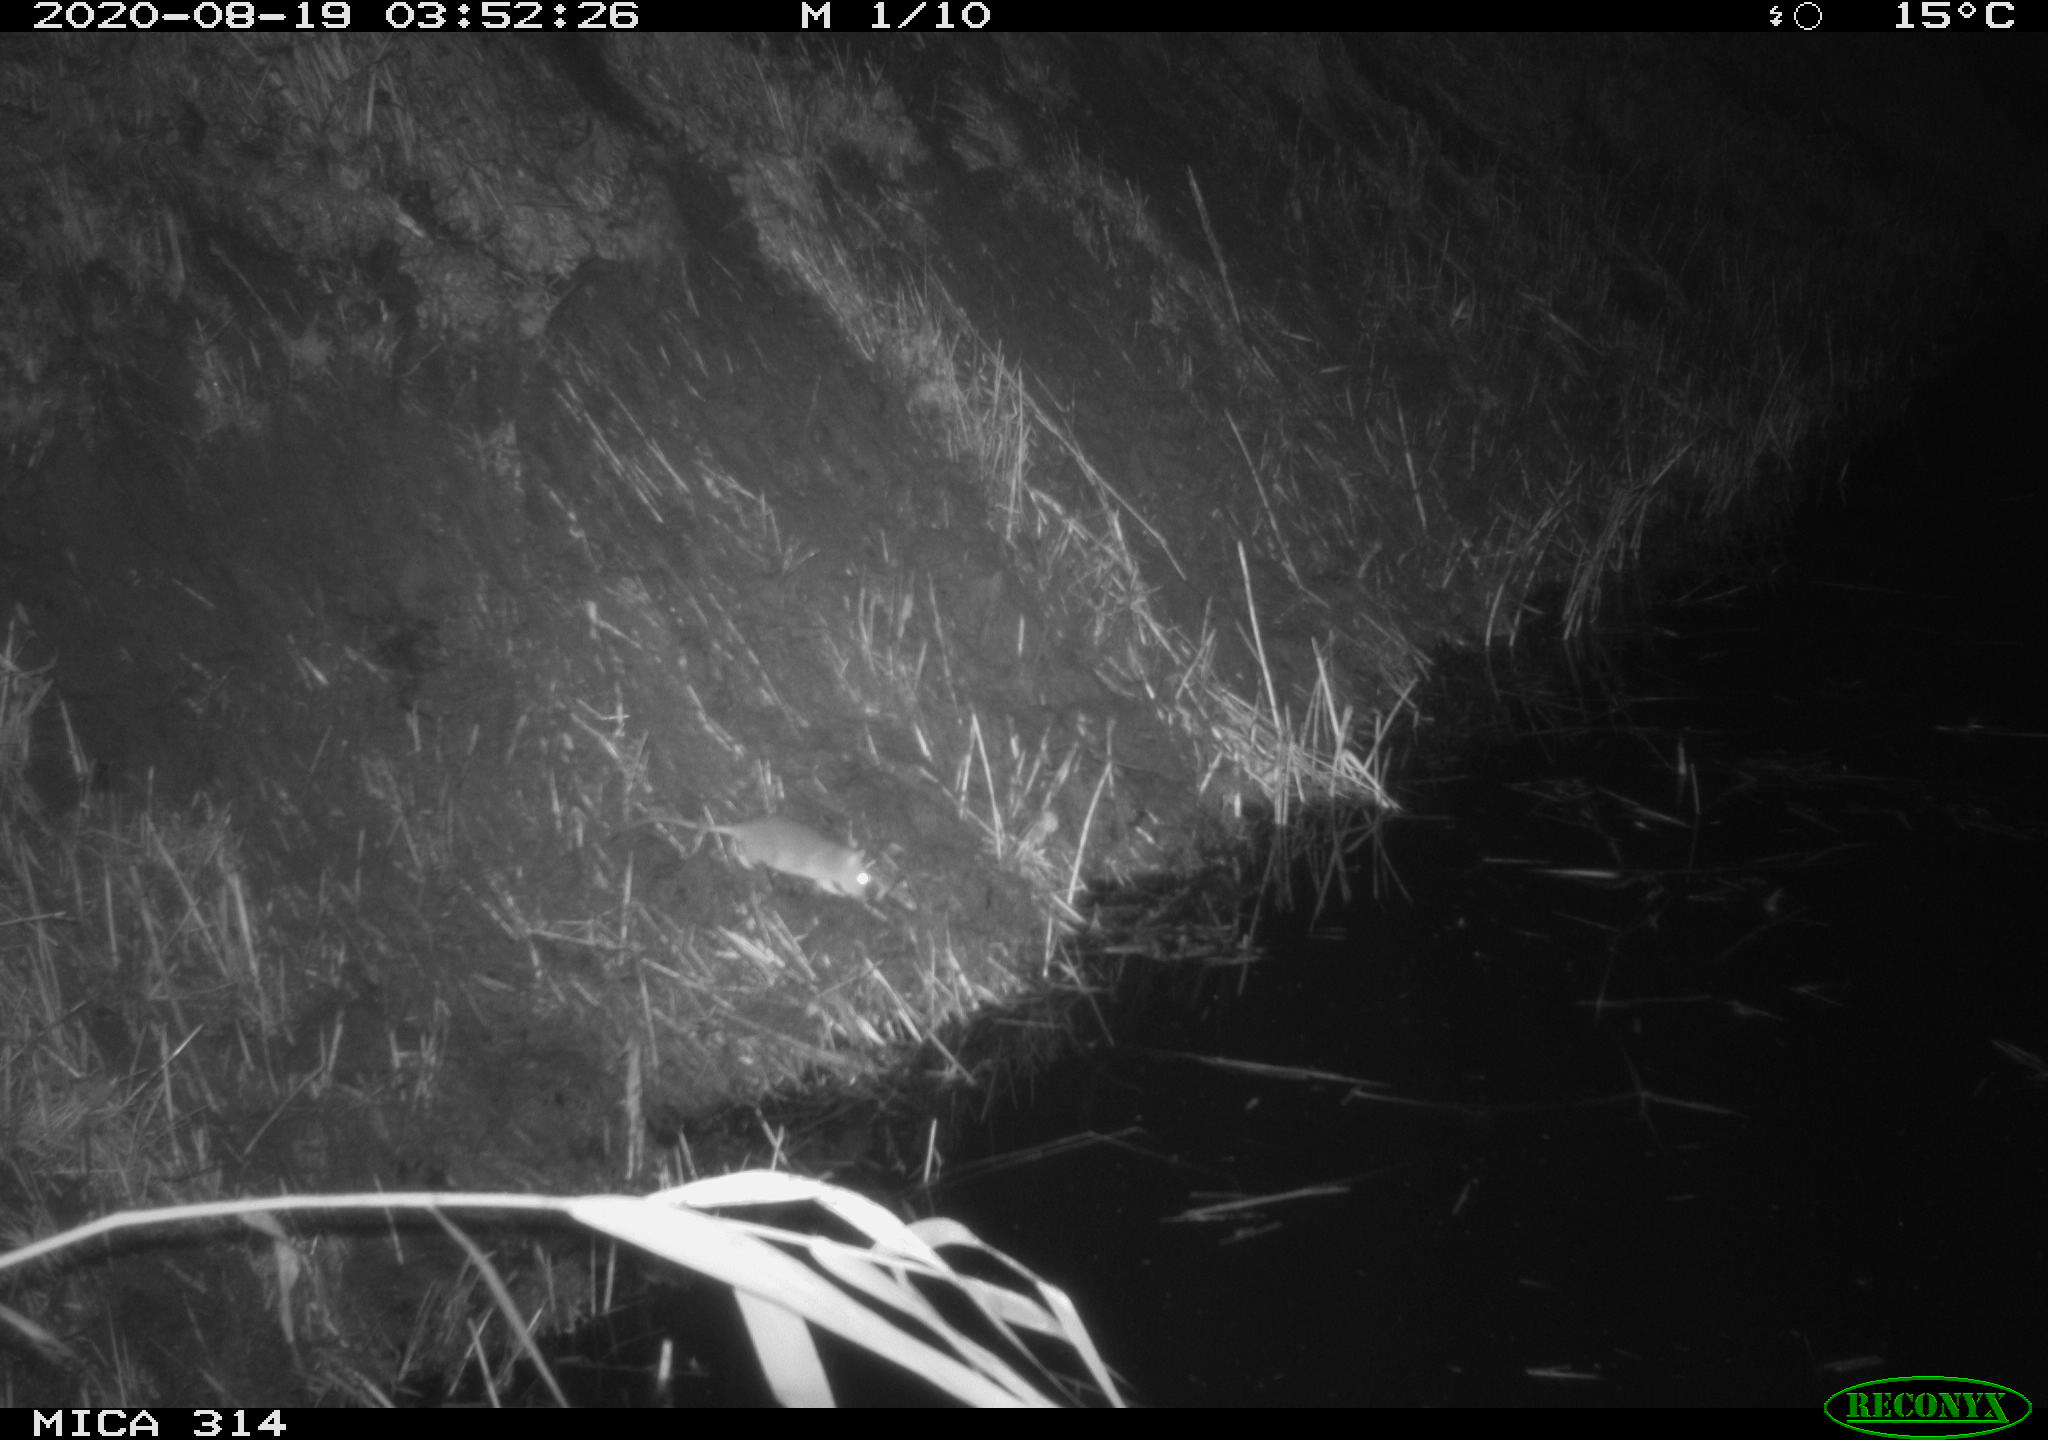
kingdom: Animalia
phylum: Chordata
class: Mammalia
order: Rodentia
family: Muridae
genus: Rattus
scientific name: Rattus norvegicus
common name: Brown rat
